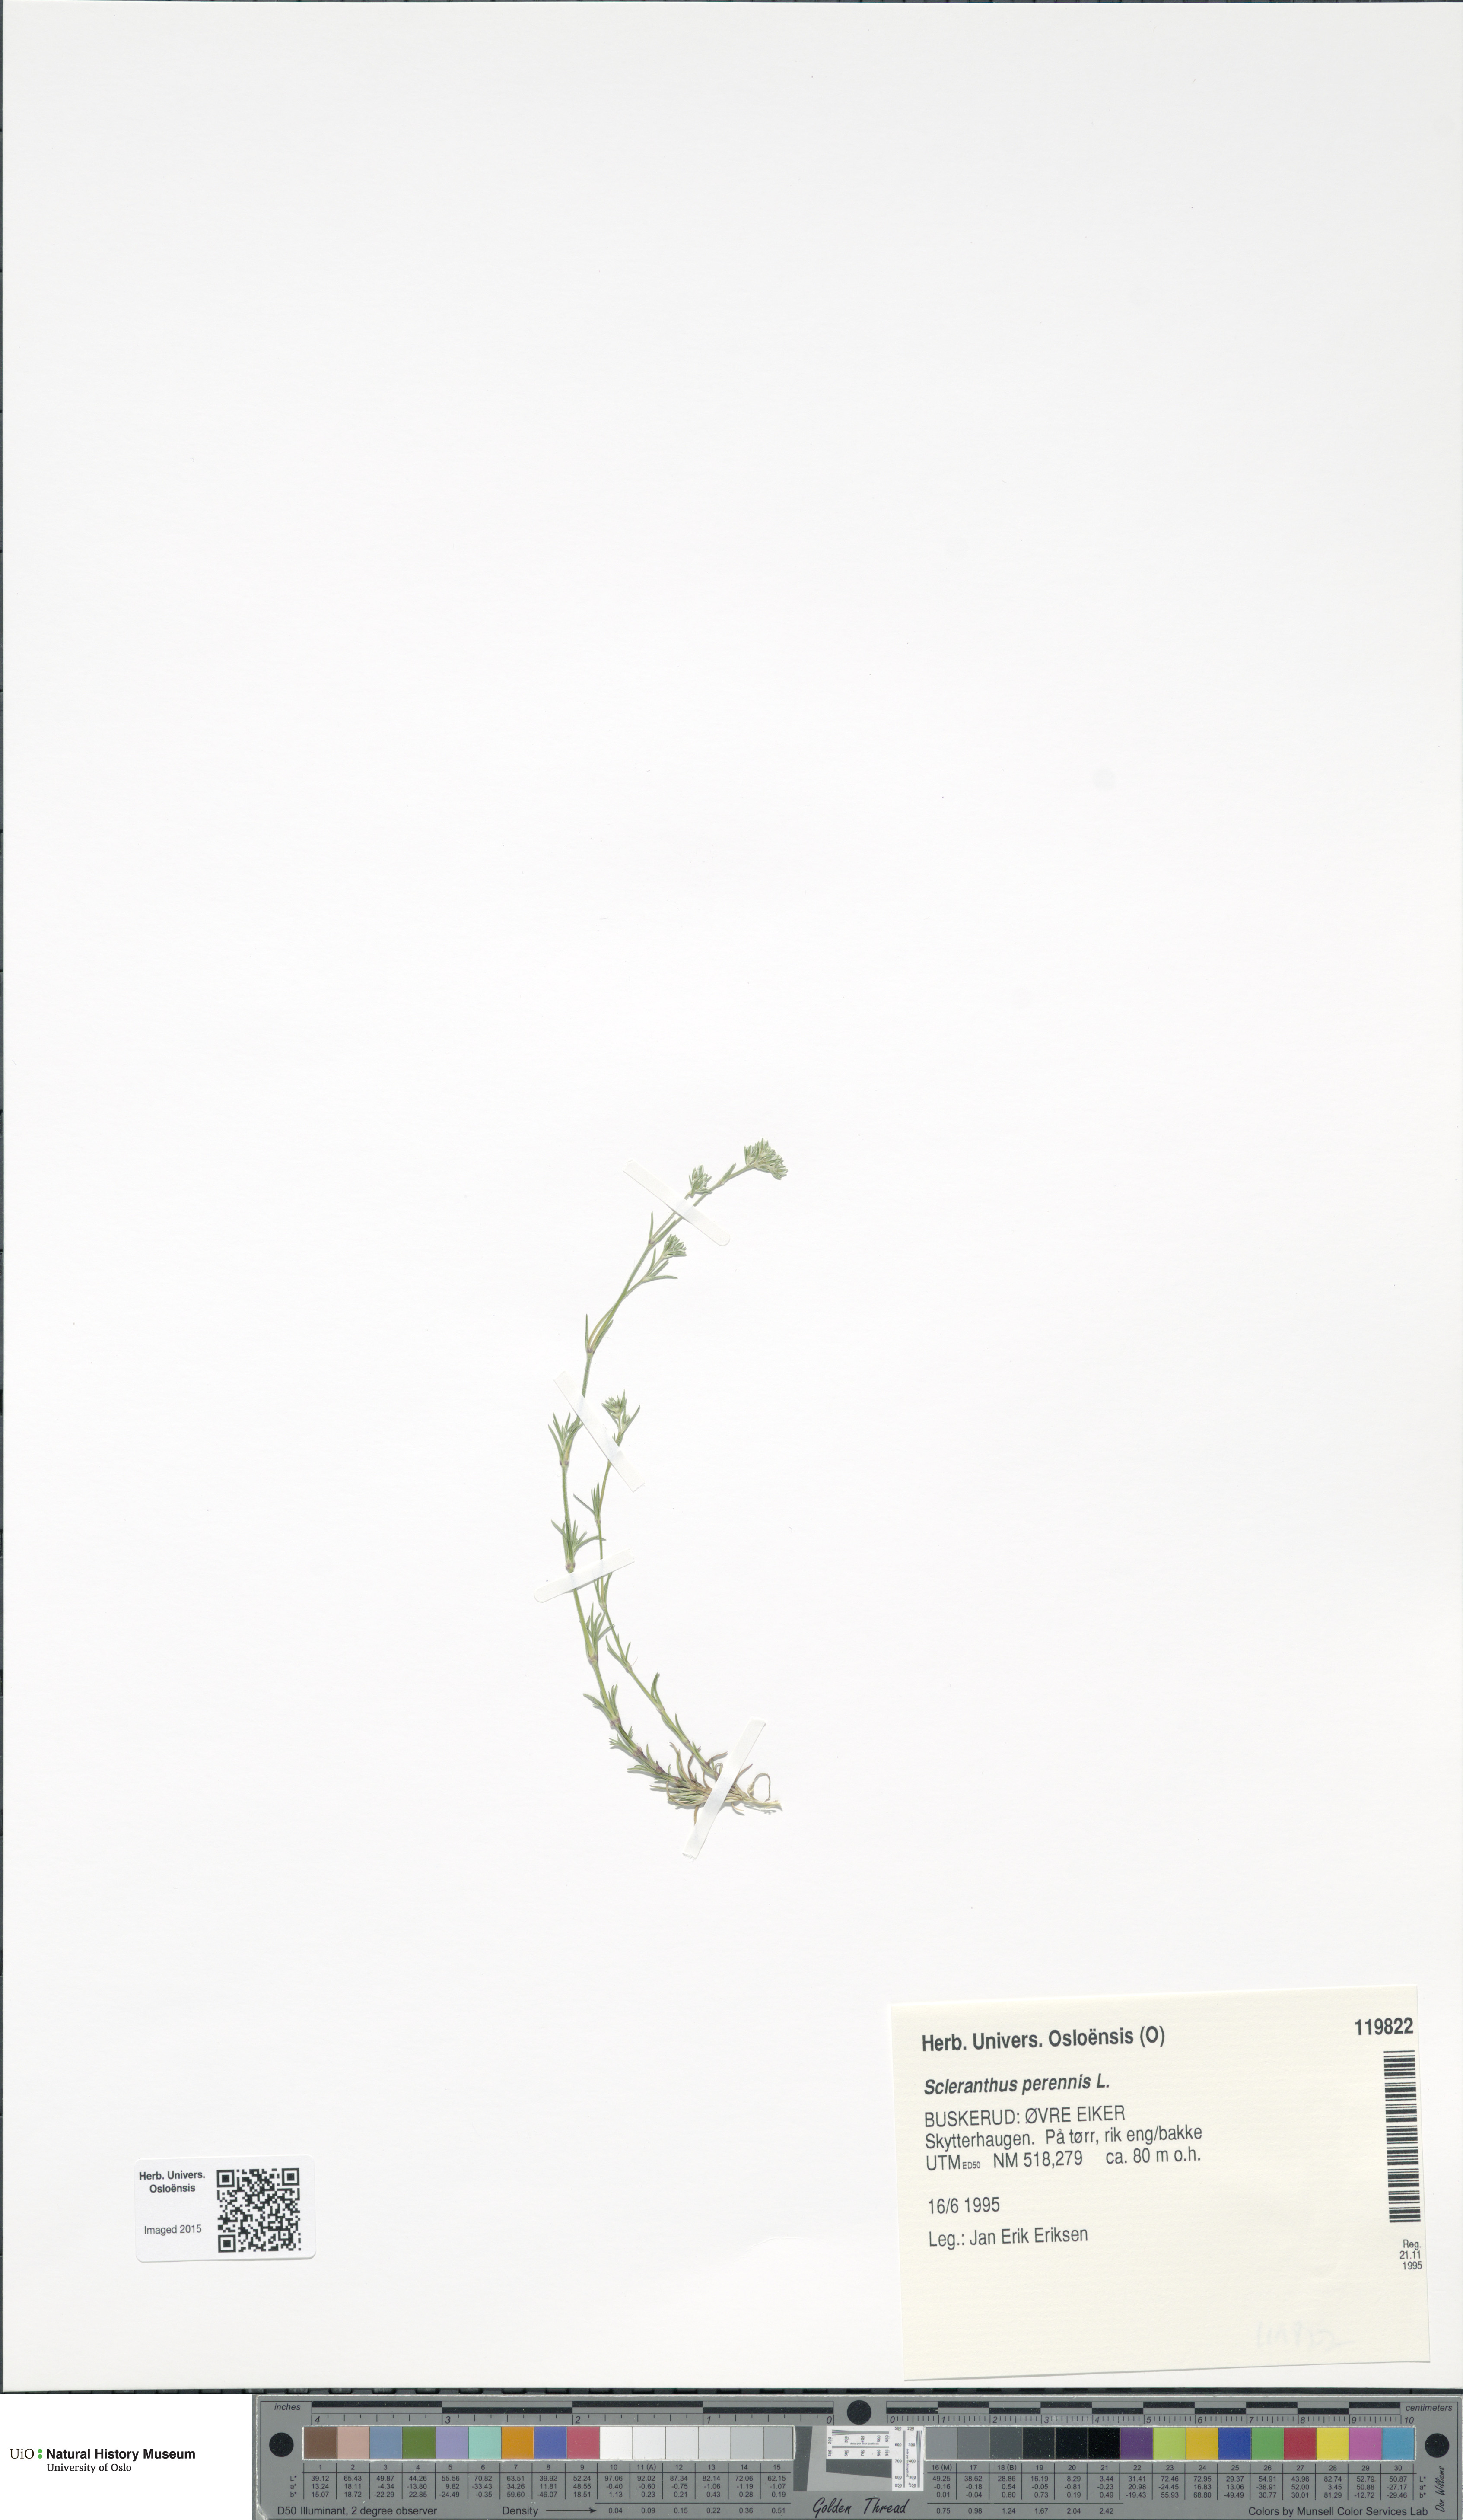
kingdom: Plantae
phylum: Tracheophyta
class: Magnoliopsida
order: Caryophyllales
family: Caryophyllaceae
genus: Scleranthus
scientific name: Scleranthus perennis
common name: Perennial knawel
